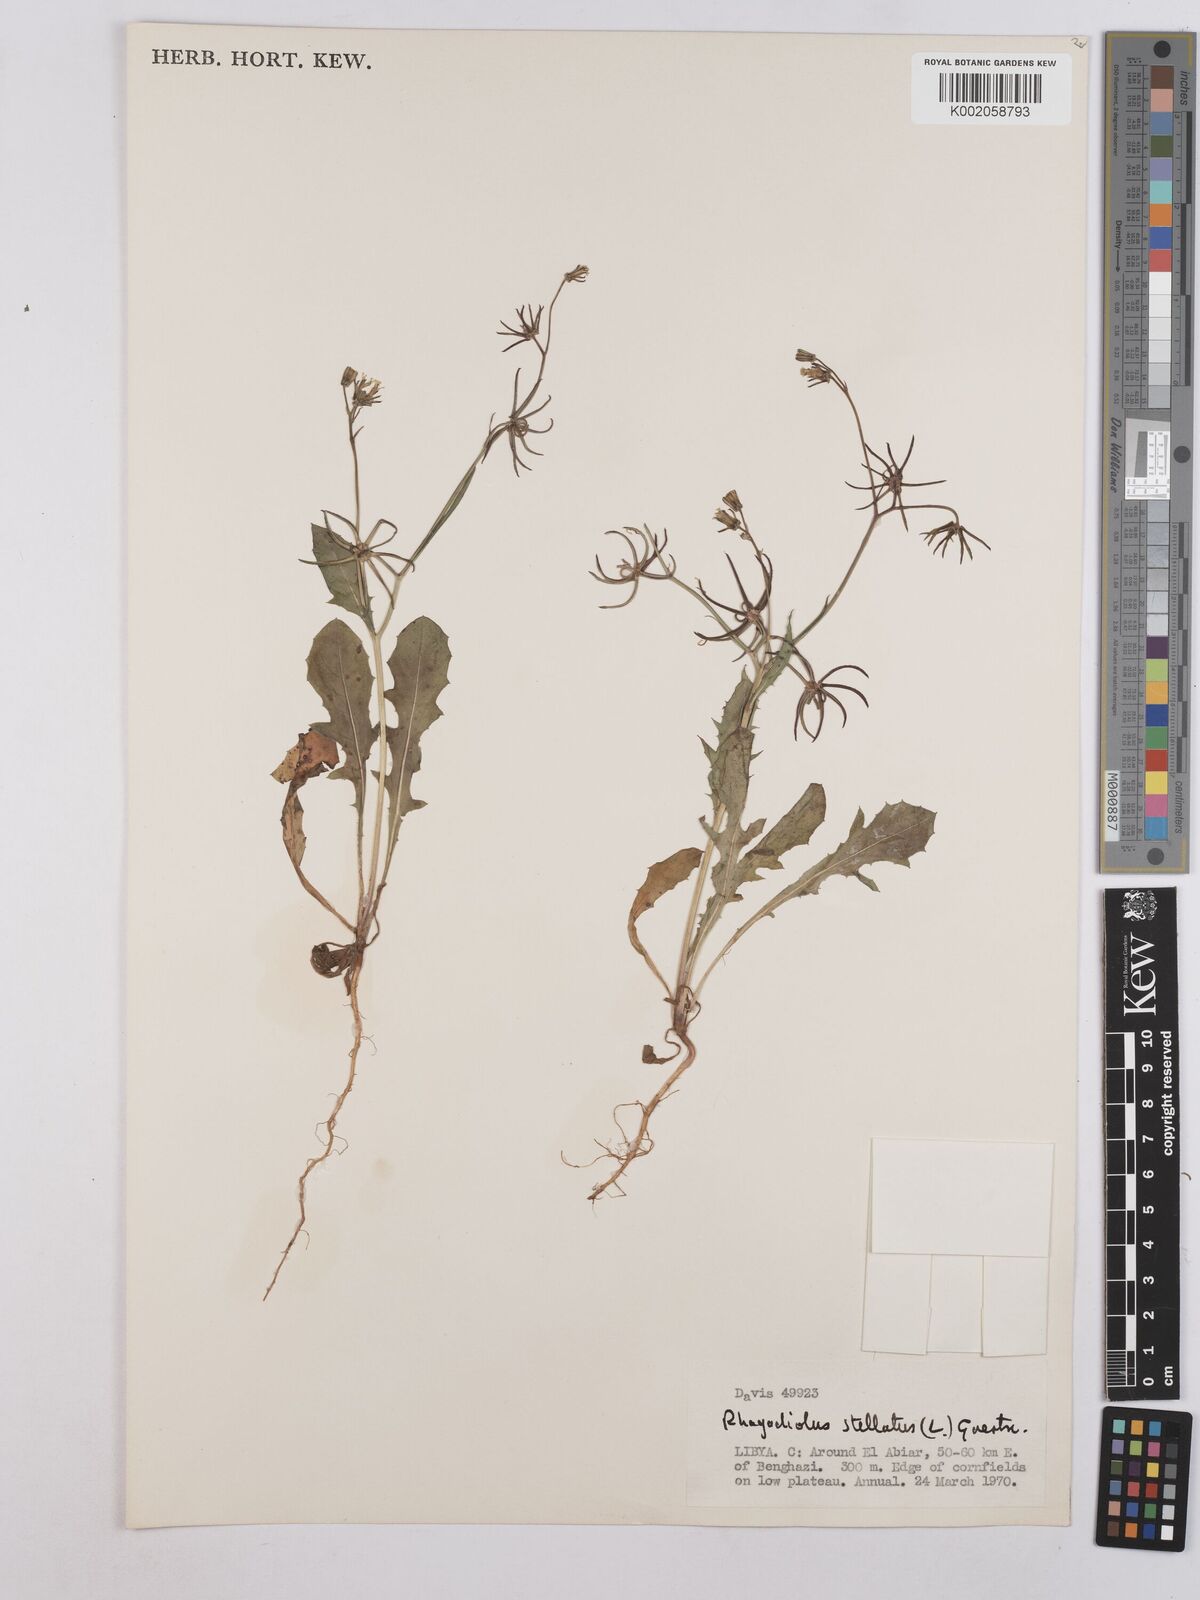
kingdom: Plantae
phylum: Tracheophyta
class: Magnoliopsida
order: Asterales
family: Asteraceae
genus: Rhagadiolus
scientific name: Rhagadiolus stellatus
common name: Star hawkbit
